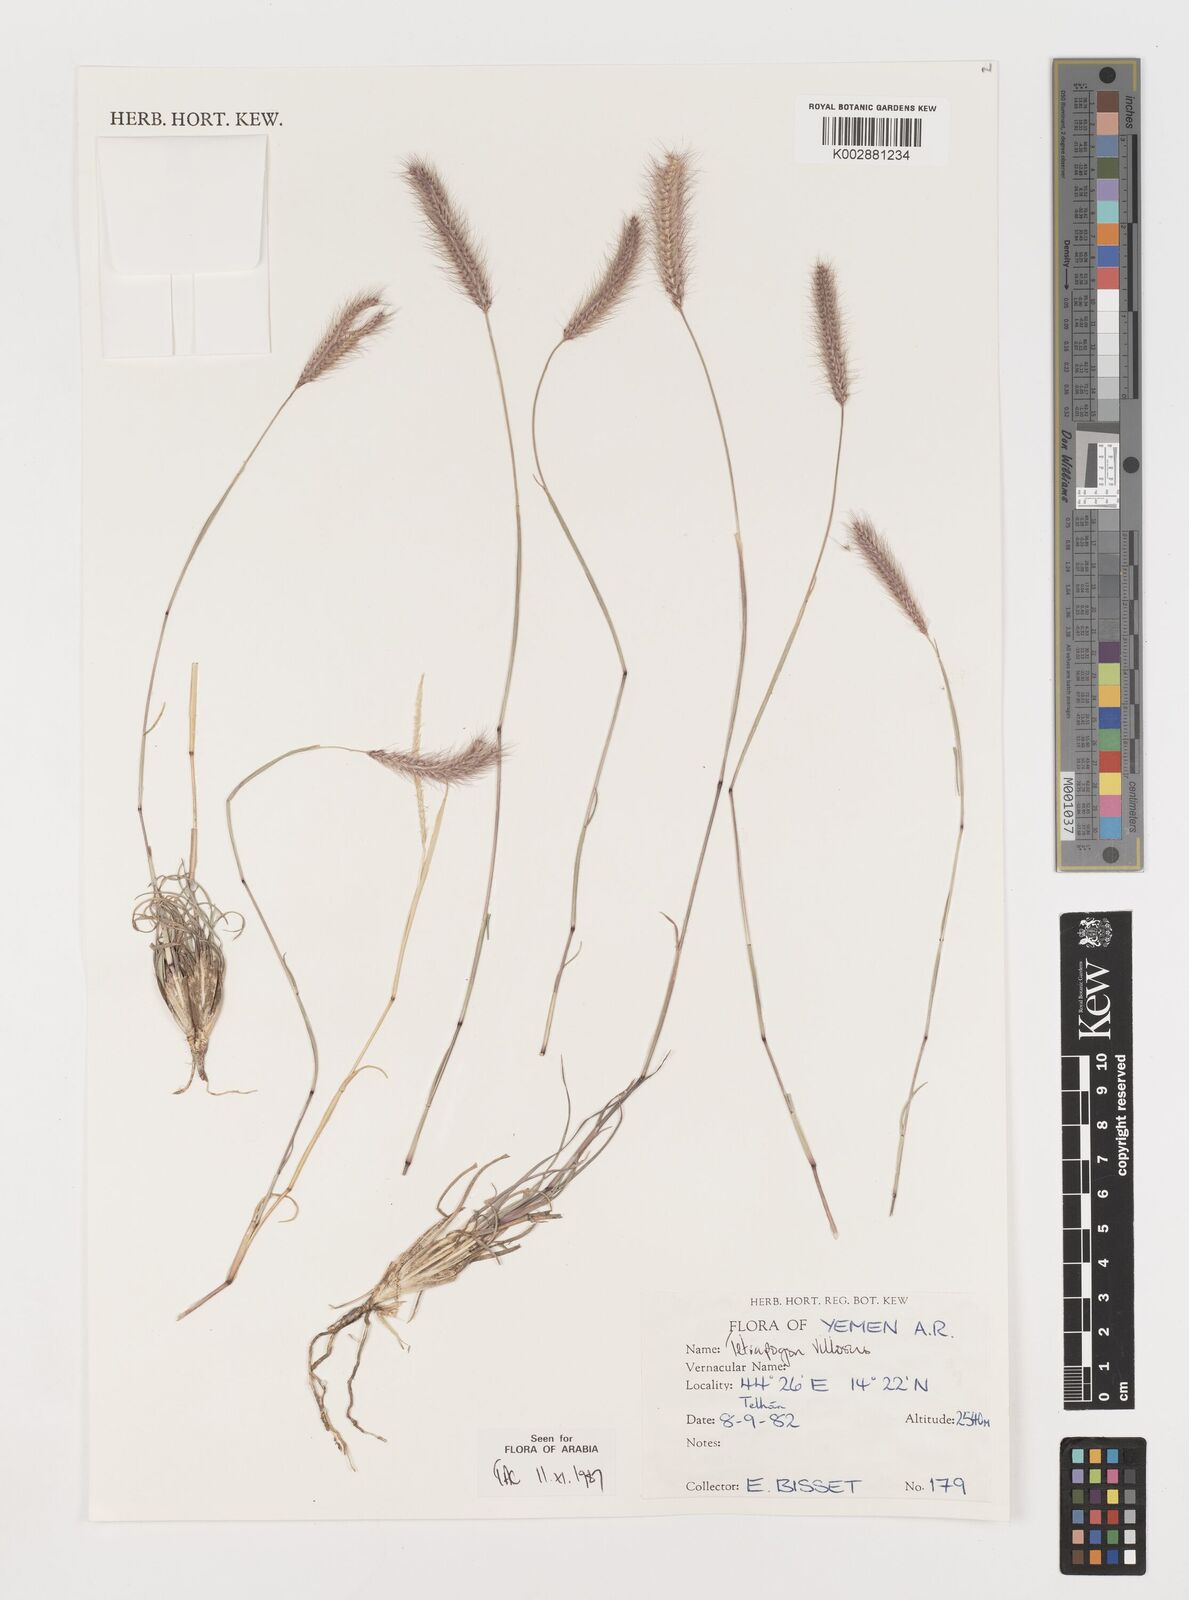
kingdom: Plantae
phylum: Tracheophyta
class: Liliopsida
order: Poales
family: Poaceae
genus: Tetrapogon
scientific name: Tetrapogon villosus
